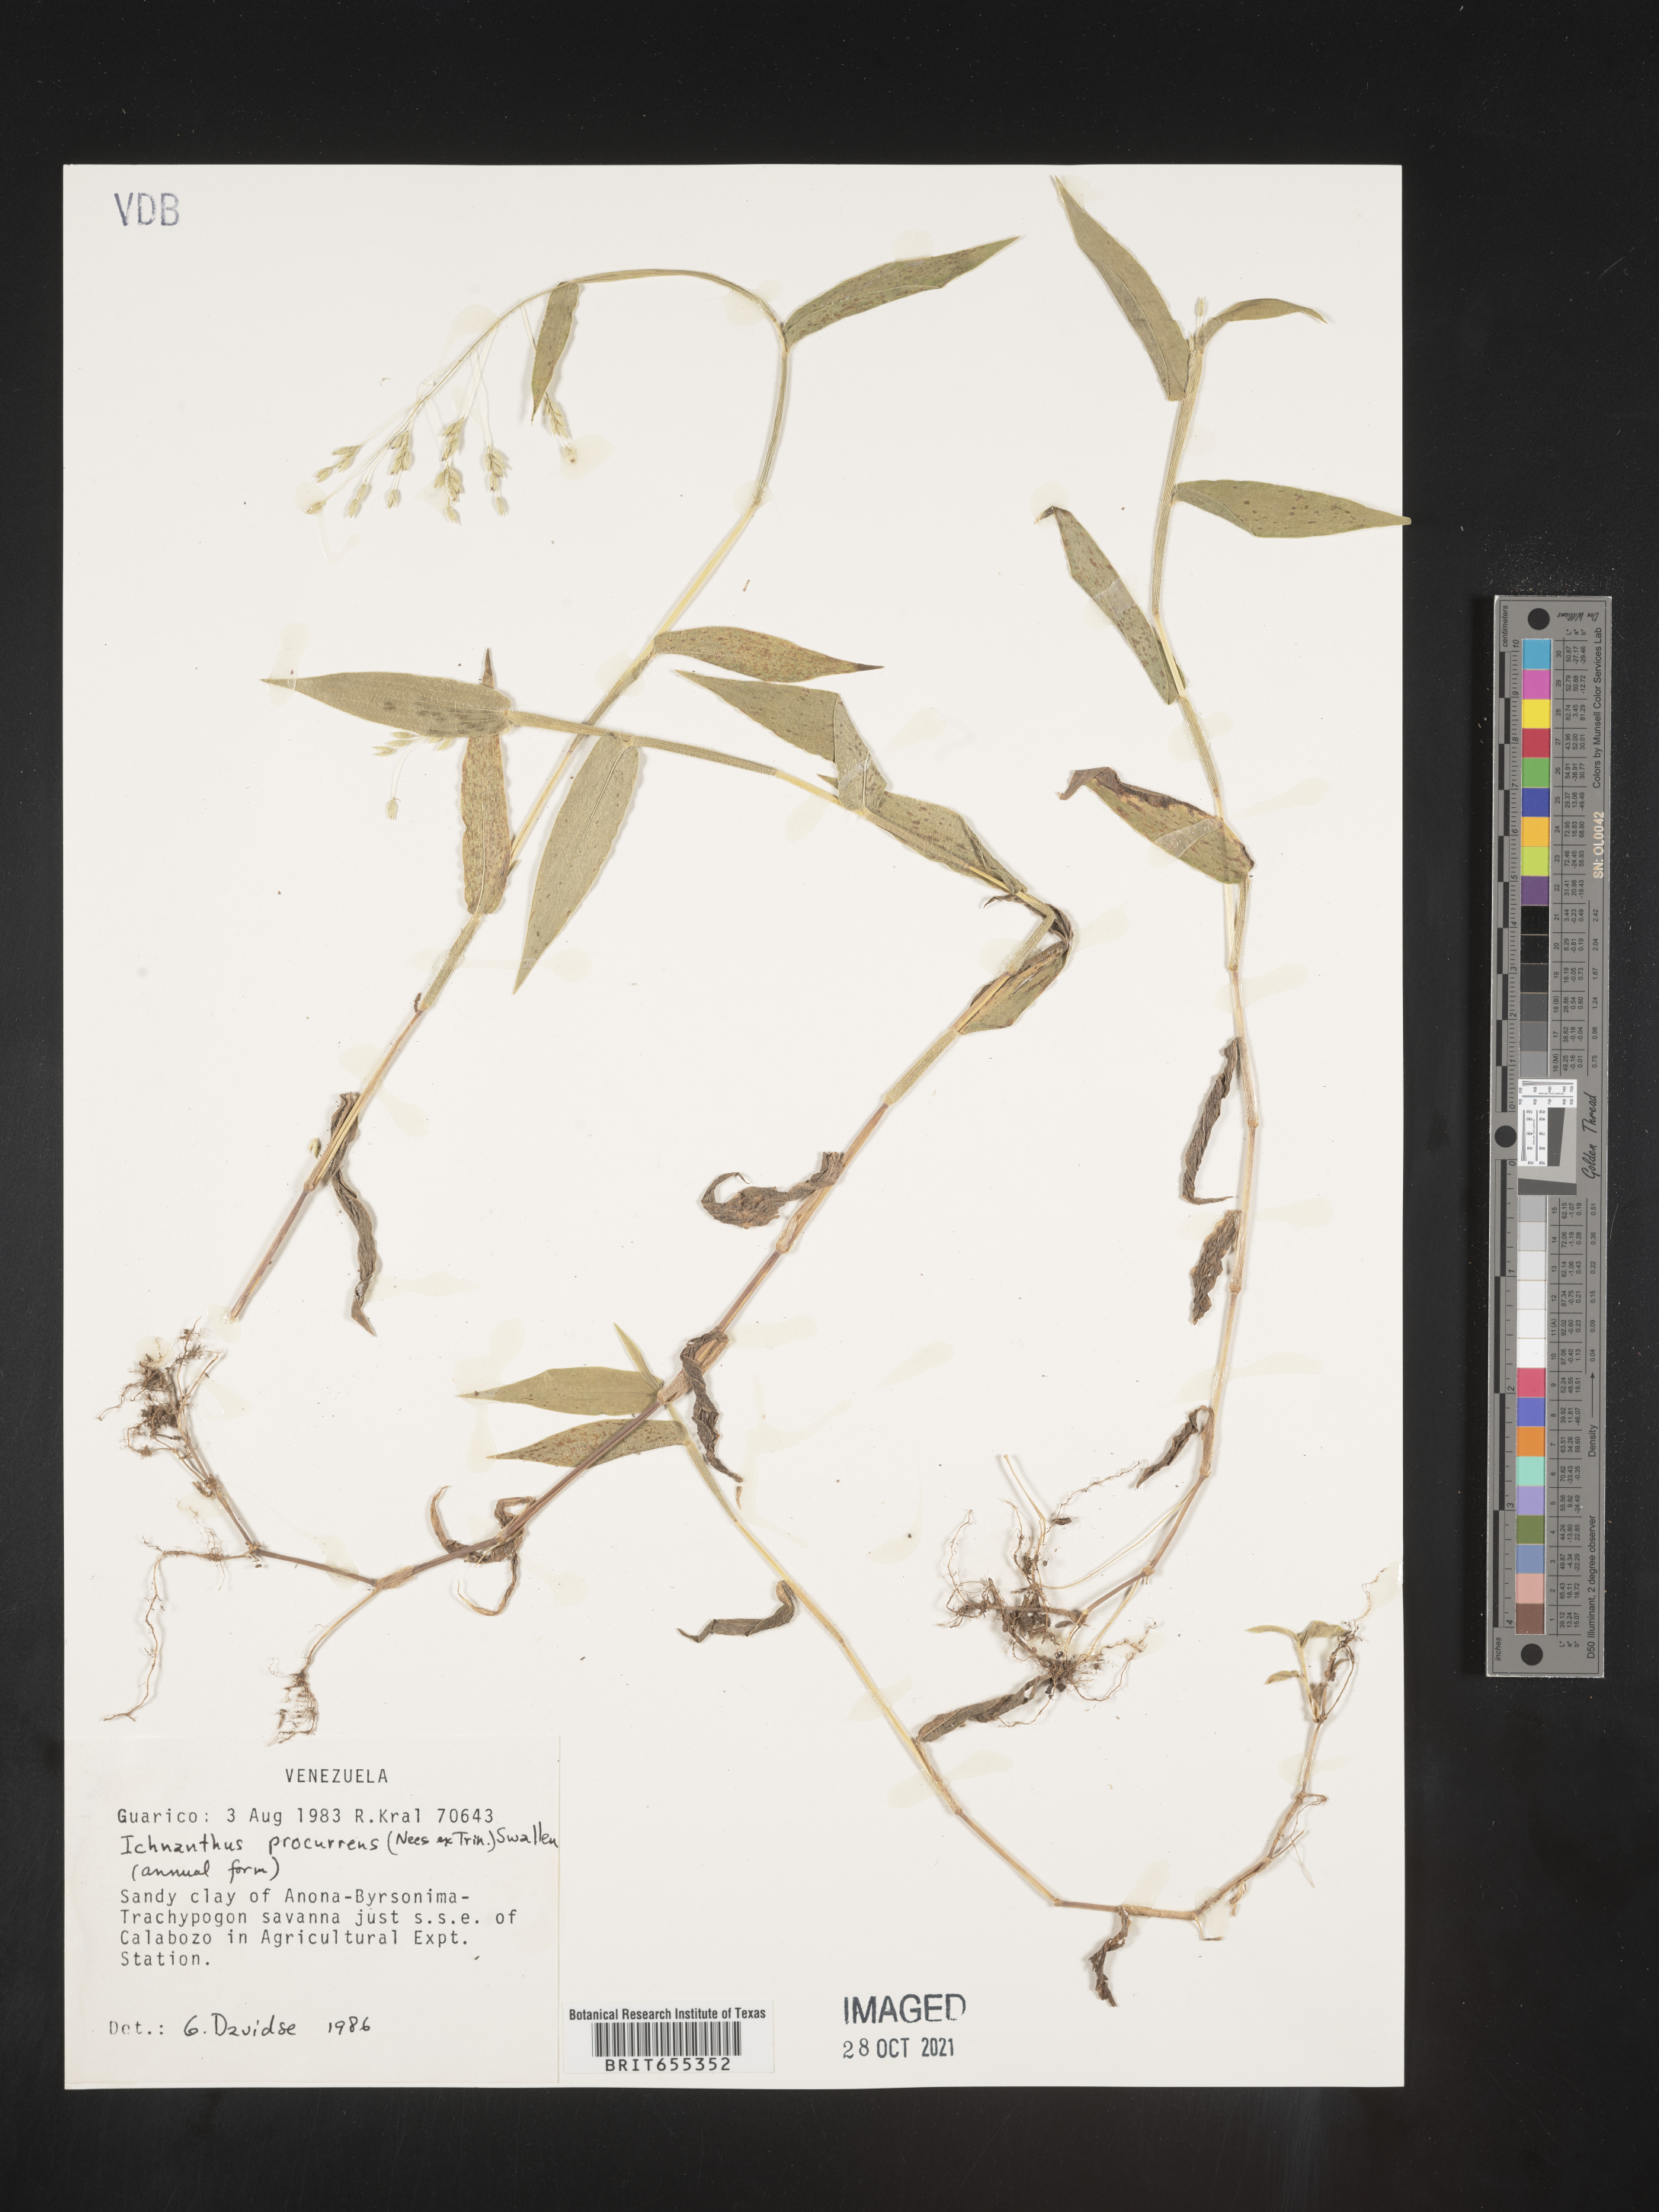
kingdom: Plantae
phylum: Tracheophyta
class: Liliopsida
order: Poales
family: Poaceae
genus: Ichnanthus
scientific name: Ichnanthus
